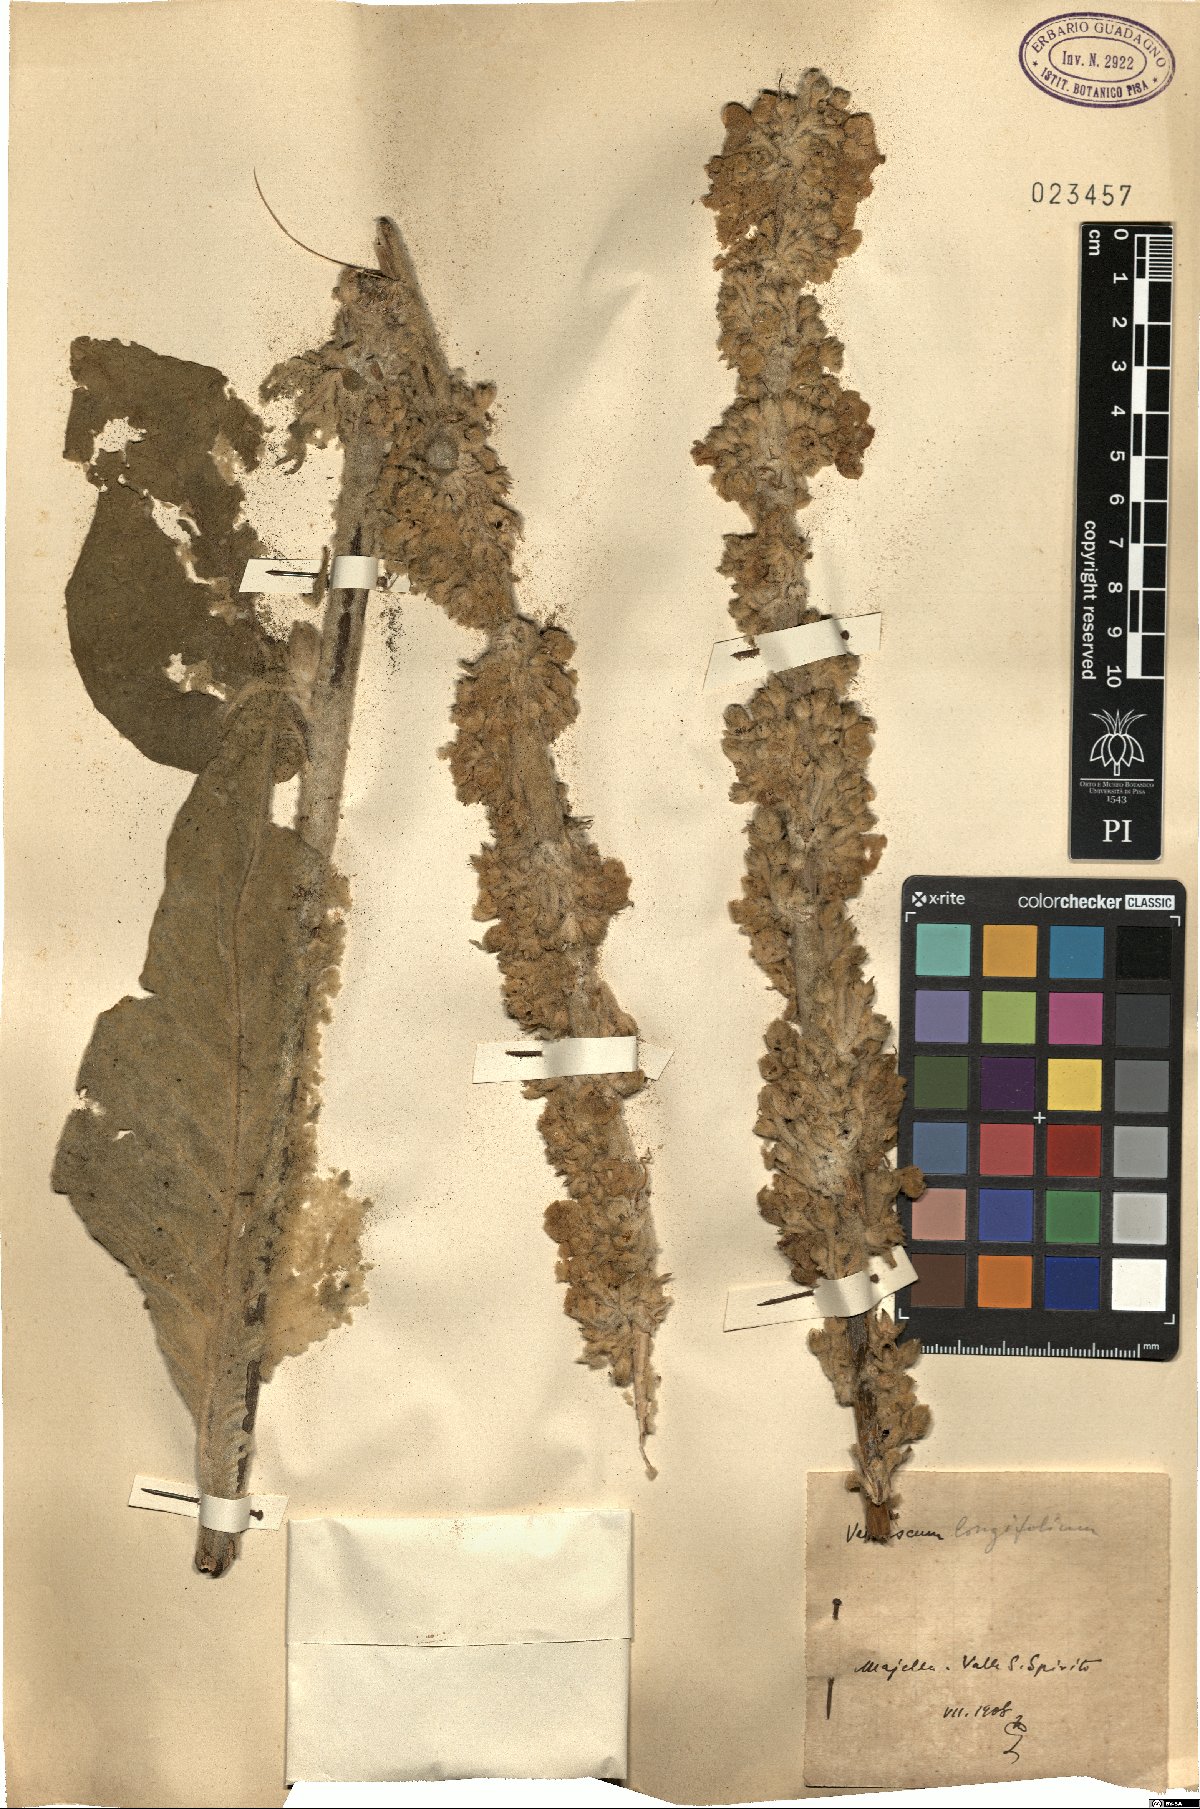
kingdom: Plantae
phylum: Tracheophyta
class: Magnoliopsida
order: Lamiales
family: Scrophulariaceae
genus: Verbascum
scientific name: Verbascum longifolium
